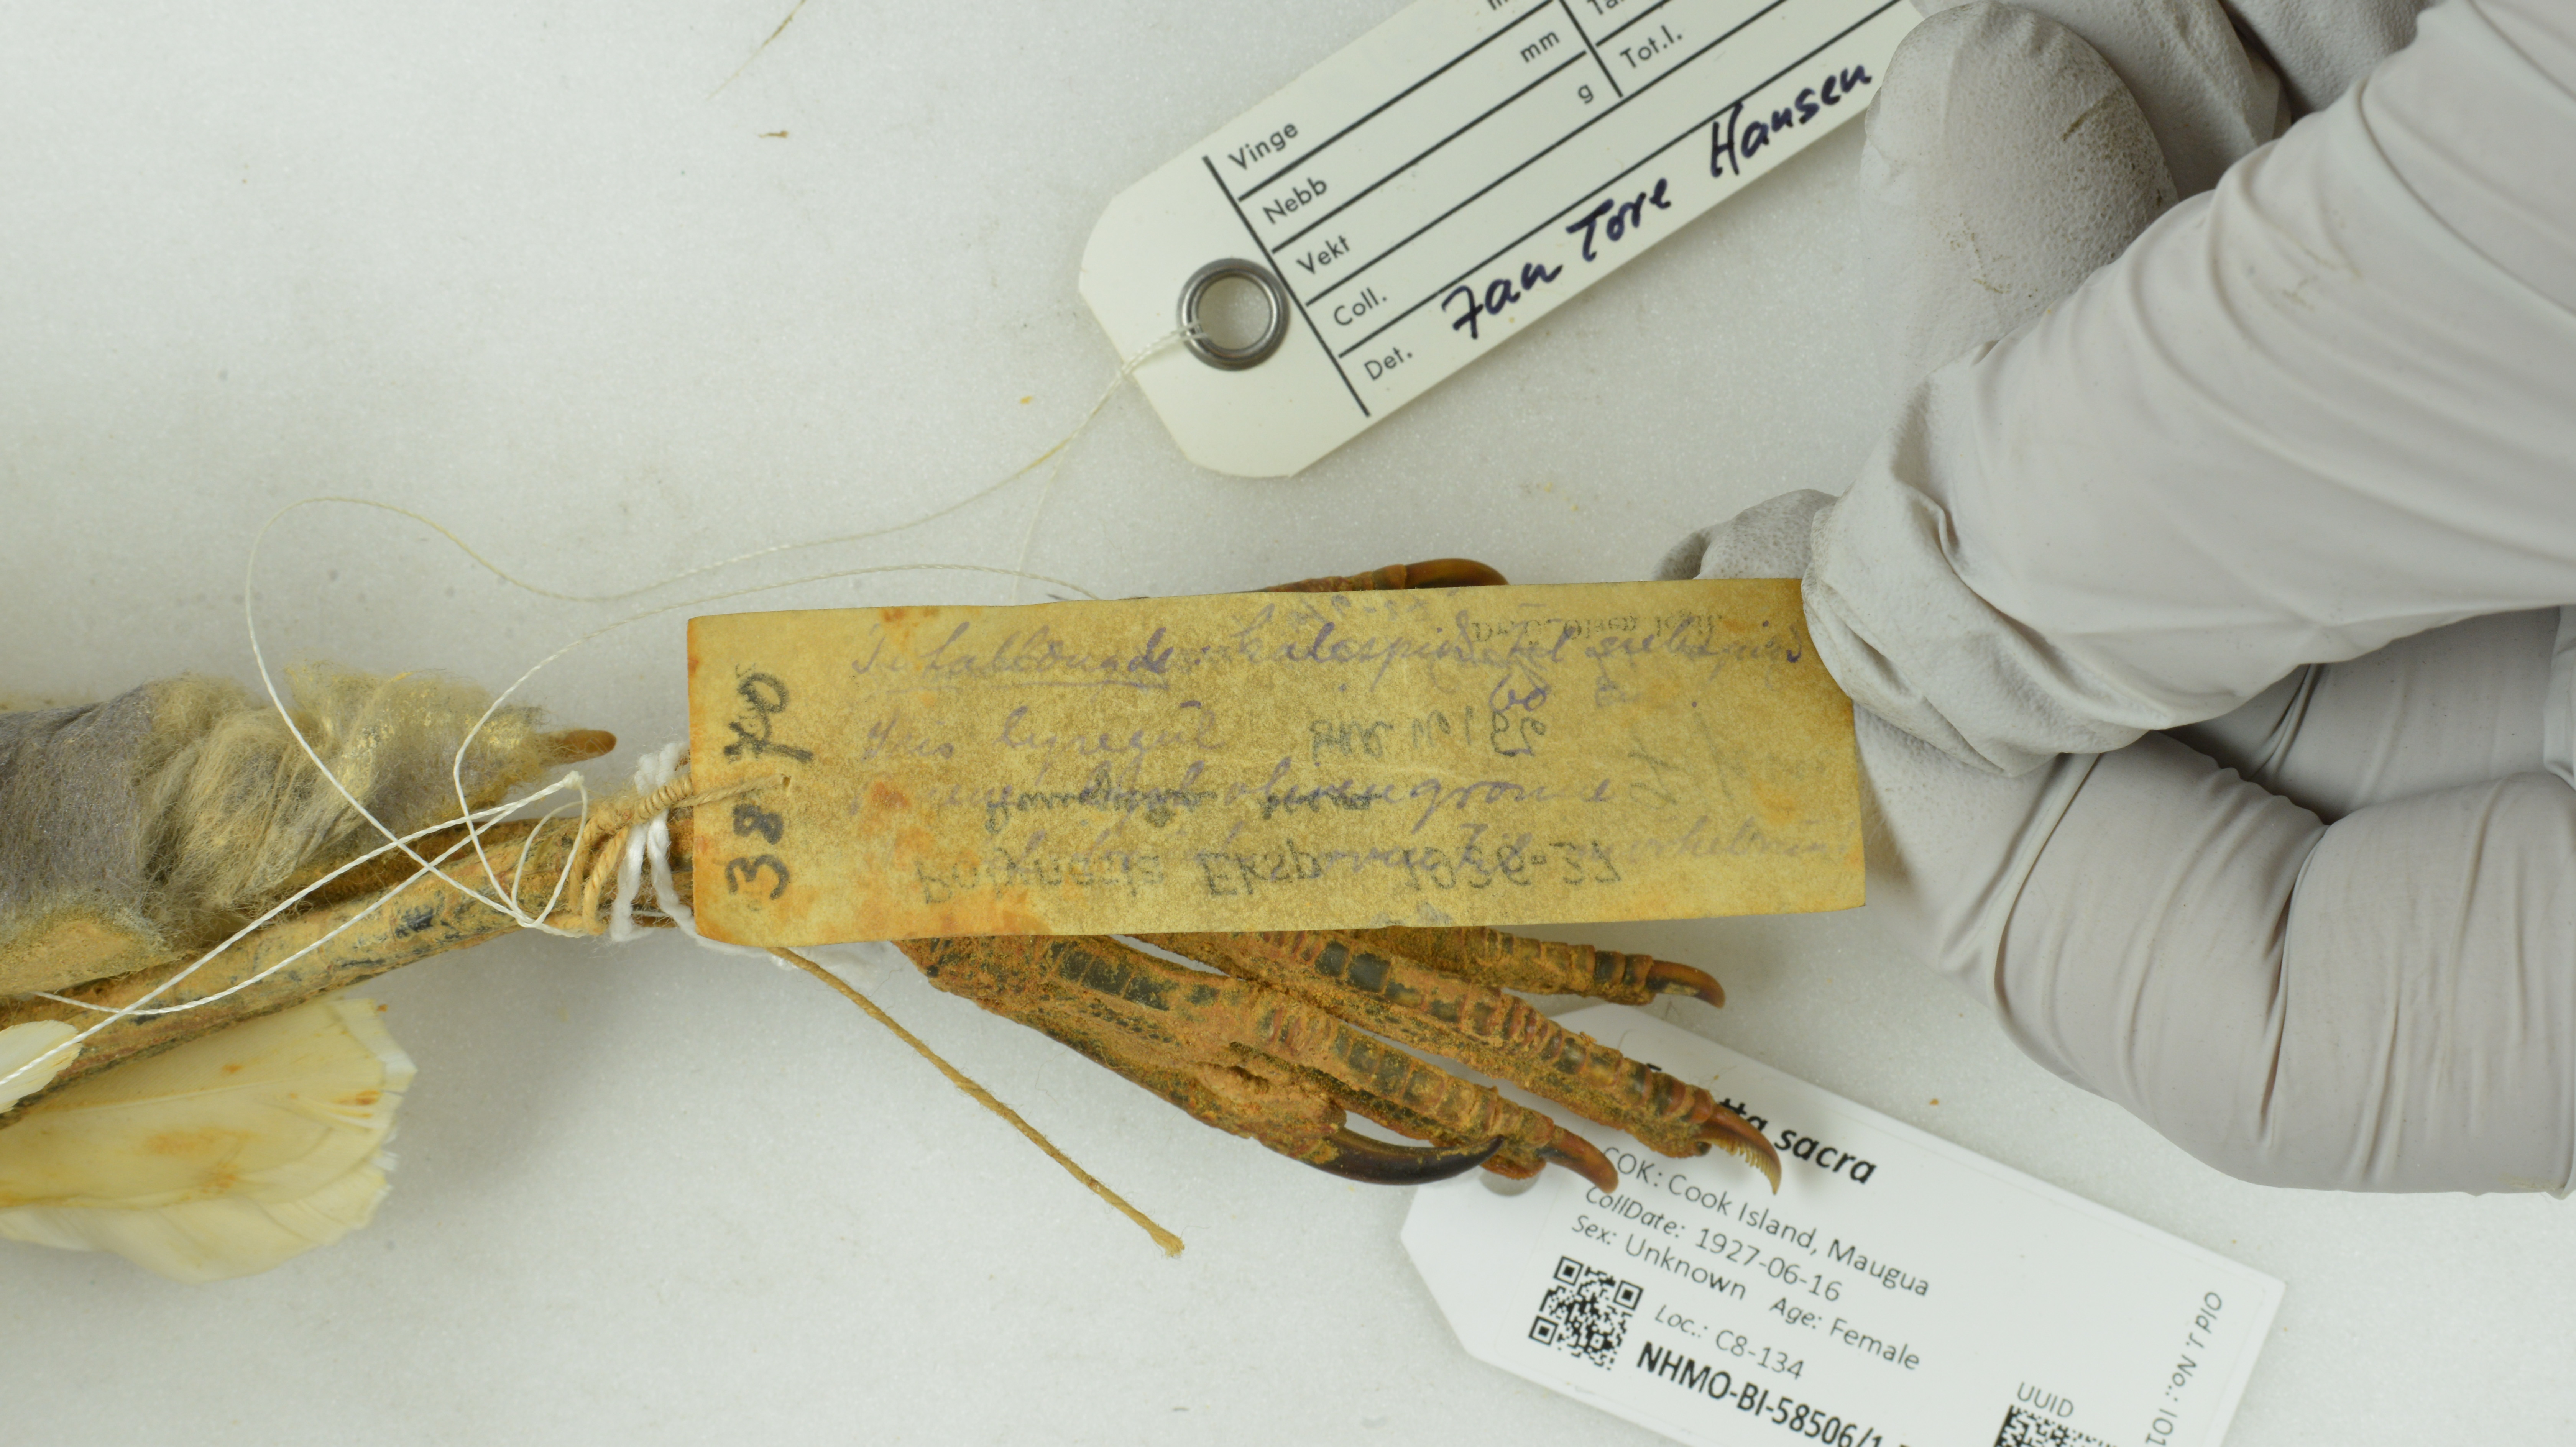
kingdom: Animalia
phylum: Chordata
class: Aves
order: Pelecaniformes
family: Ardeidae
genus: Egretta
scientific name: Egretta sacra
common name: Pacific reef heron
